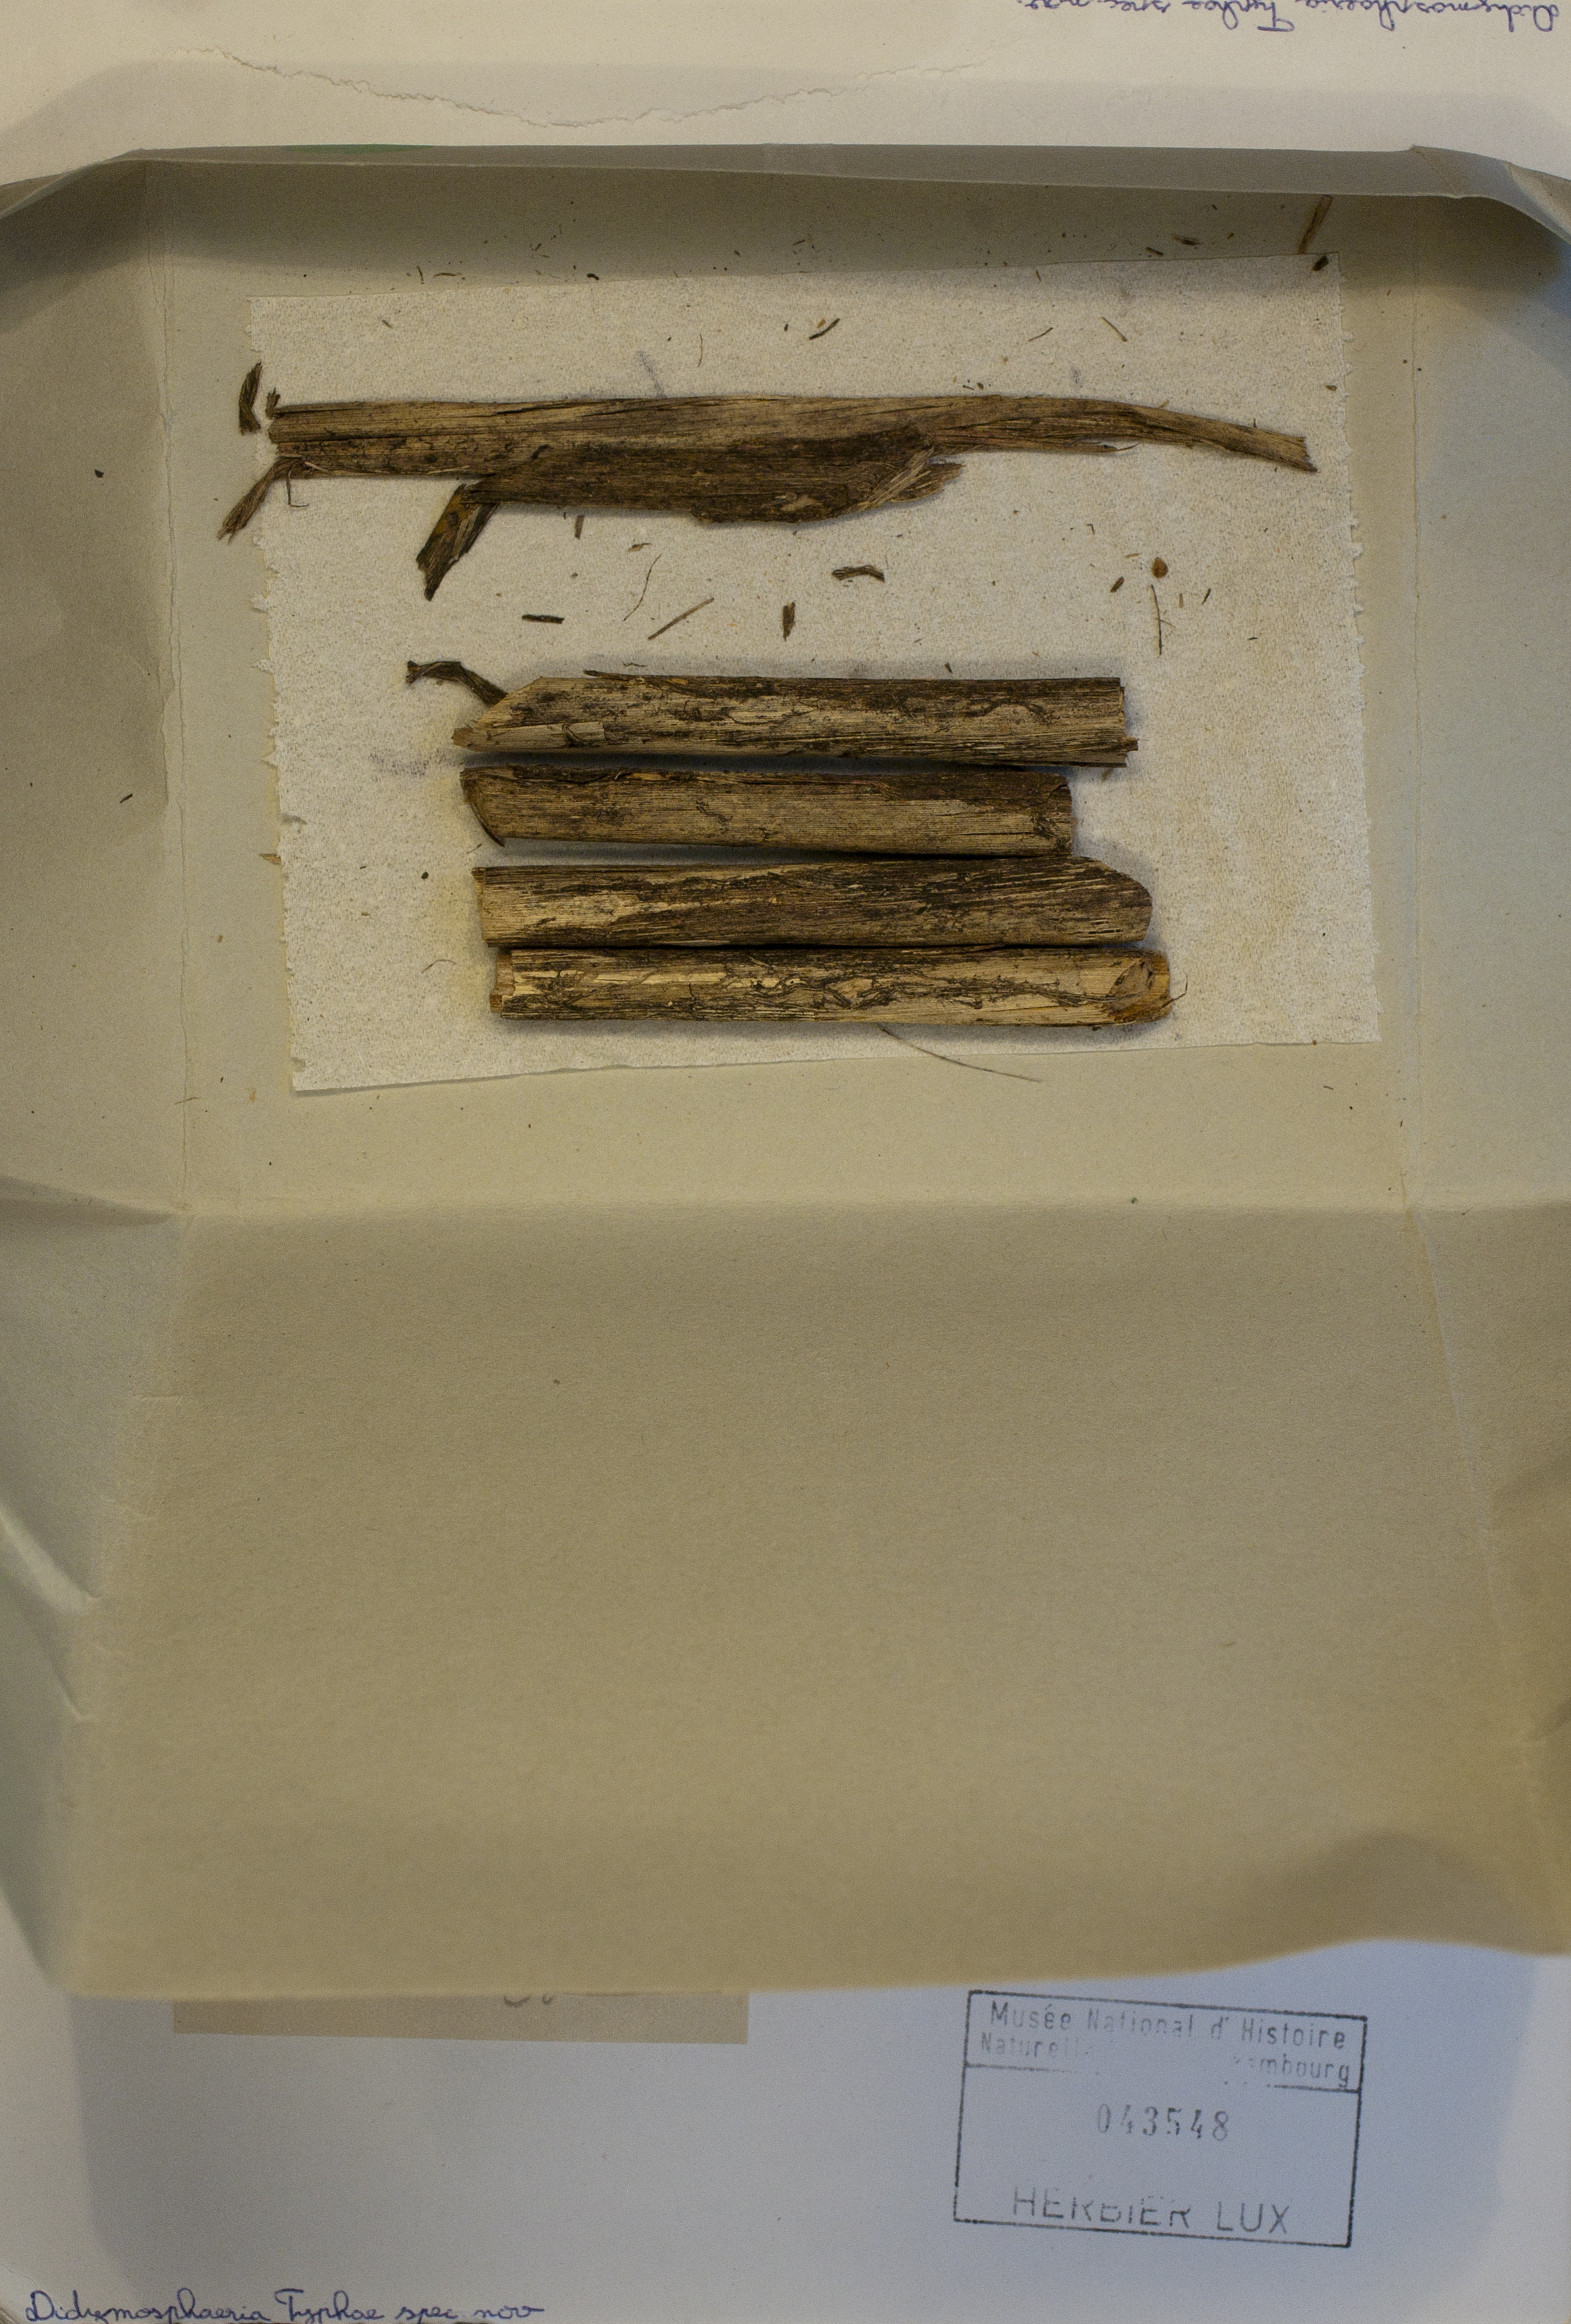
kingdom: Fungi
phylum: Ascomycota
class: Dothideomycetes
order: Pleosporales
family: Didymosphaeriaceae
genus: Didymosphaeria
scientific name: Didymosphaeria feltgenii
